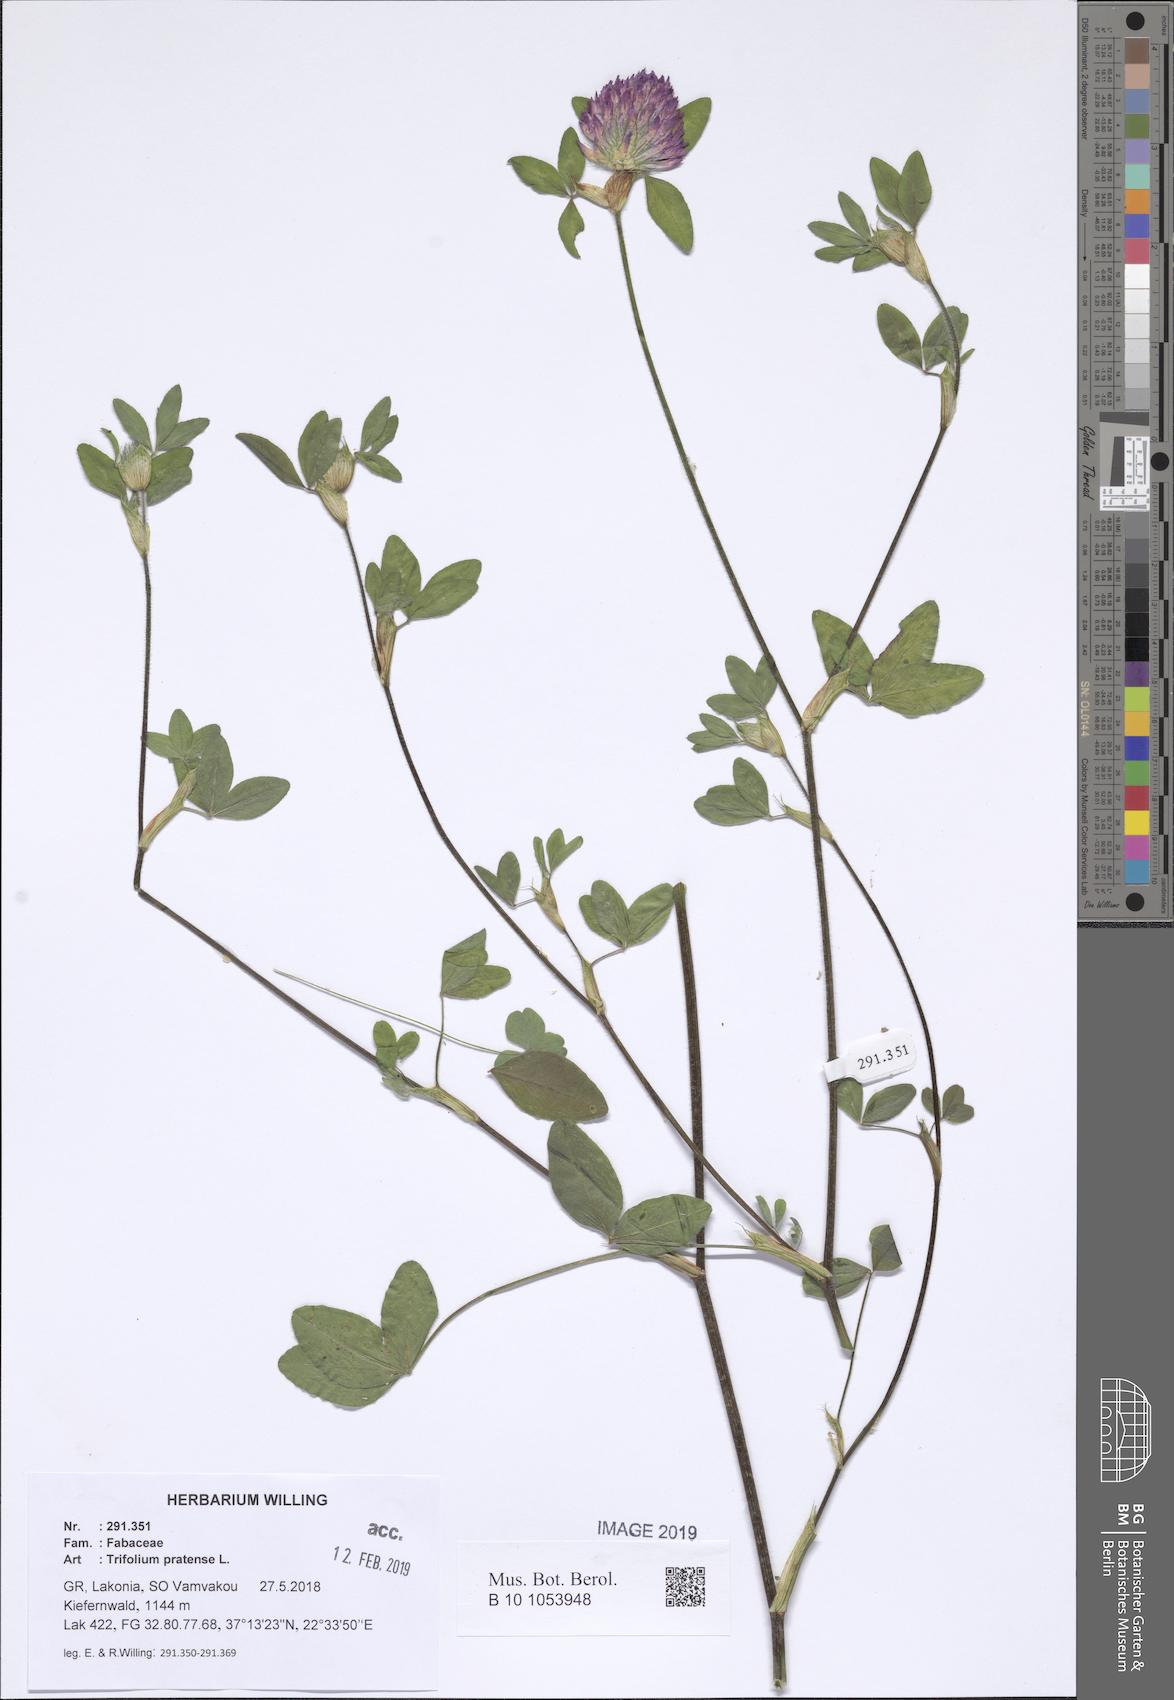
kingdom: Plantae
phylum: Tracheophyta
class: Magnoliopsida
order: Fabales
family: Fabaceae
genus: Trifolium
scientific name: Trifolium pratense
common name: Red clover
